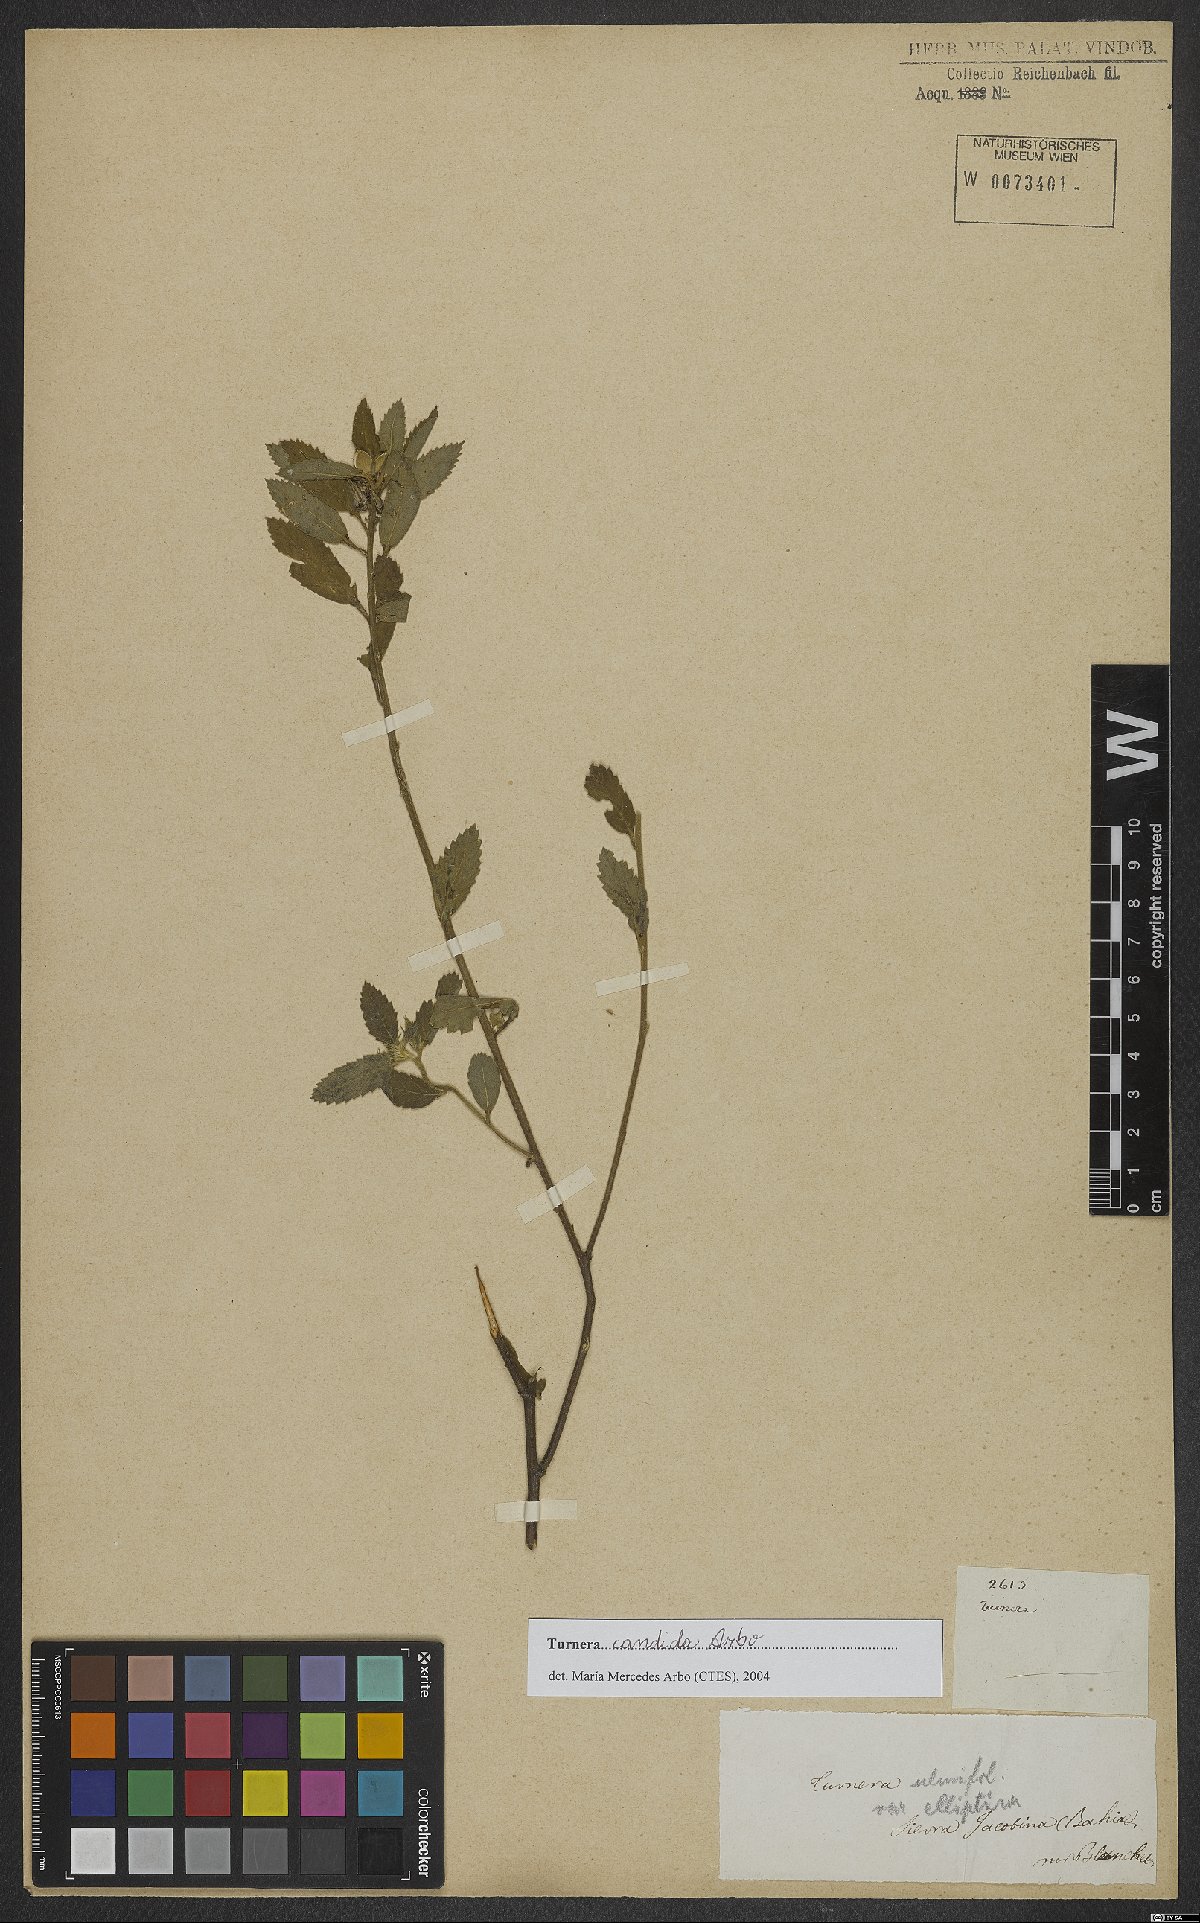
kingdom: Plantae
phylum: Tracheophyta
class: Magnoliopsida
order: Malpighiales
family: Turneraceae
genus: Turnera
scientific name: Turnera candida
